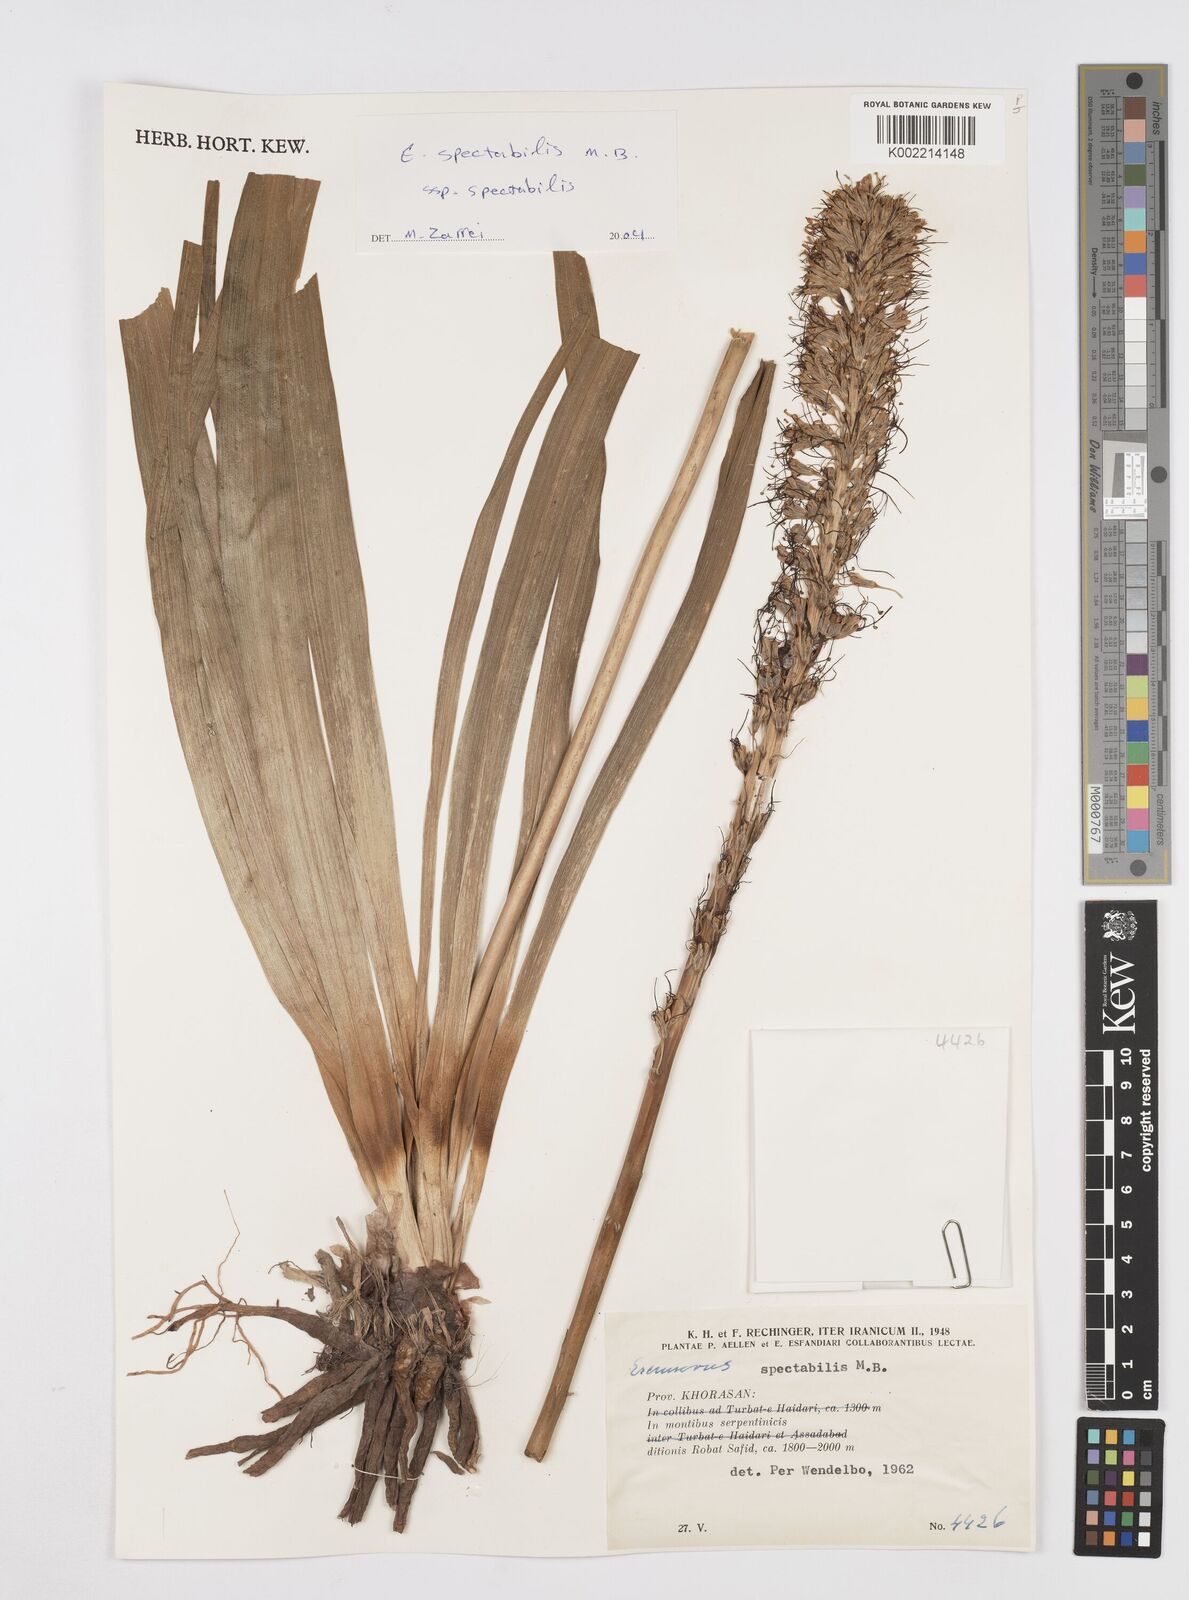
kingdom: Plantae
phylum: Tracheophyta
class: Liliopsida
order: Asparagales
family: Asphodelaceae
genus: Eremurus
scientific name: Eremurus spectabilis
